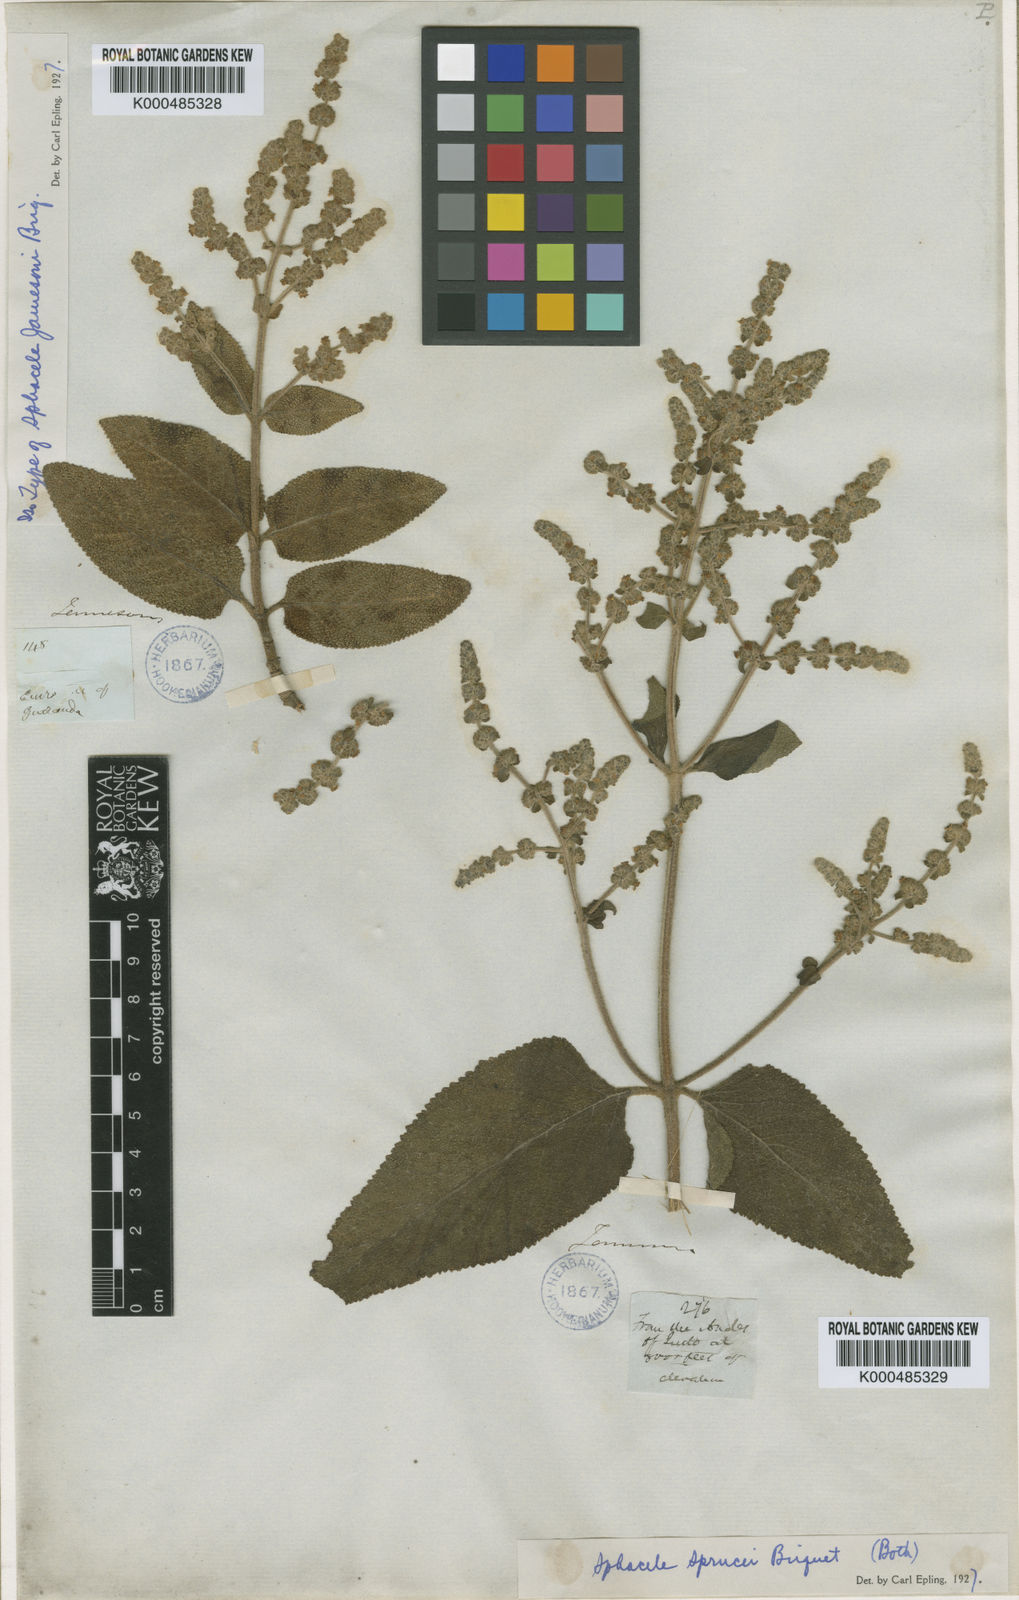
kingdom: Plantae
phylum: Tracheophyta
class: Magnoliopsida
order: Lamiales
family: Lamiaceae
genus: Lepechinia
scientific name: Lepechinia betonicifolia
